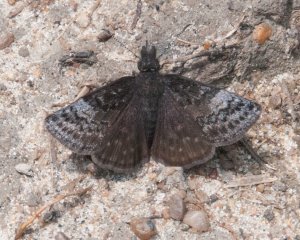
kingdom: Animalia
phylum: Arthropoda
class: Insecta
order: Lepidoptera
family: Hesperiidae
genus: Erynnis
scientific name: Erynnis icelus
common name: Dreamy Duskywing
